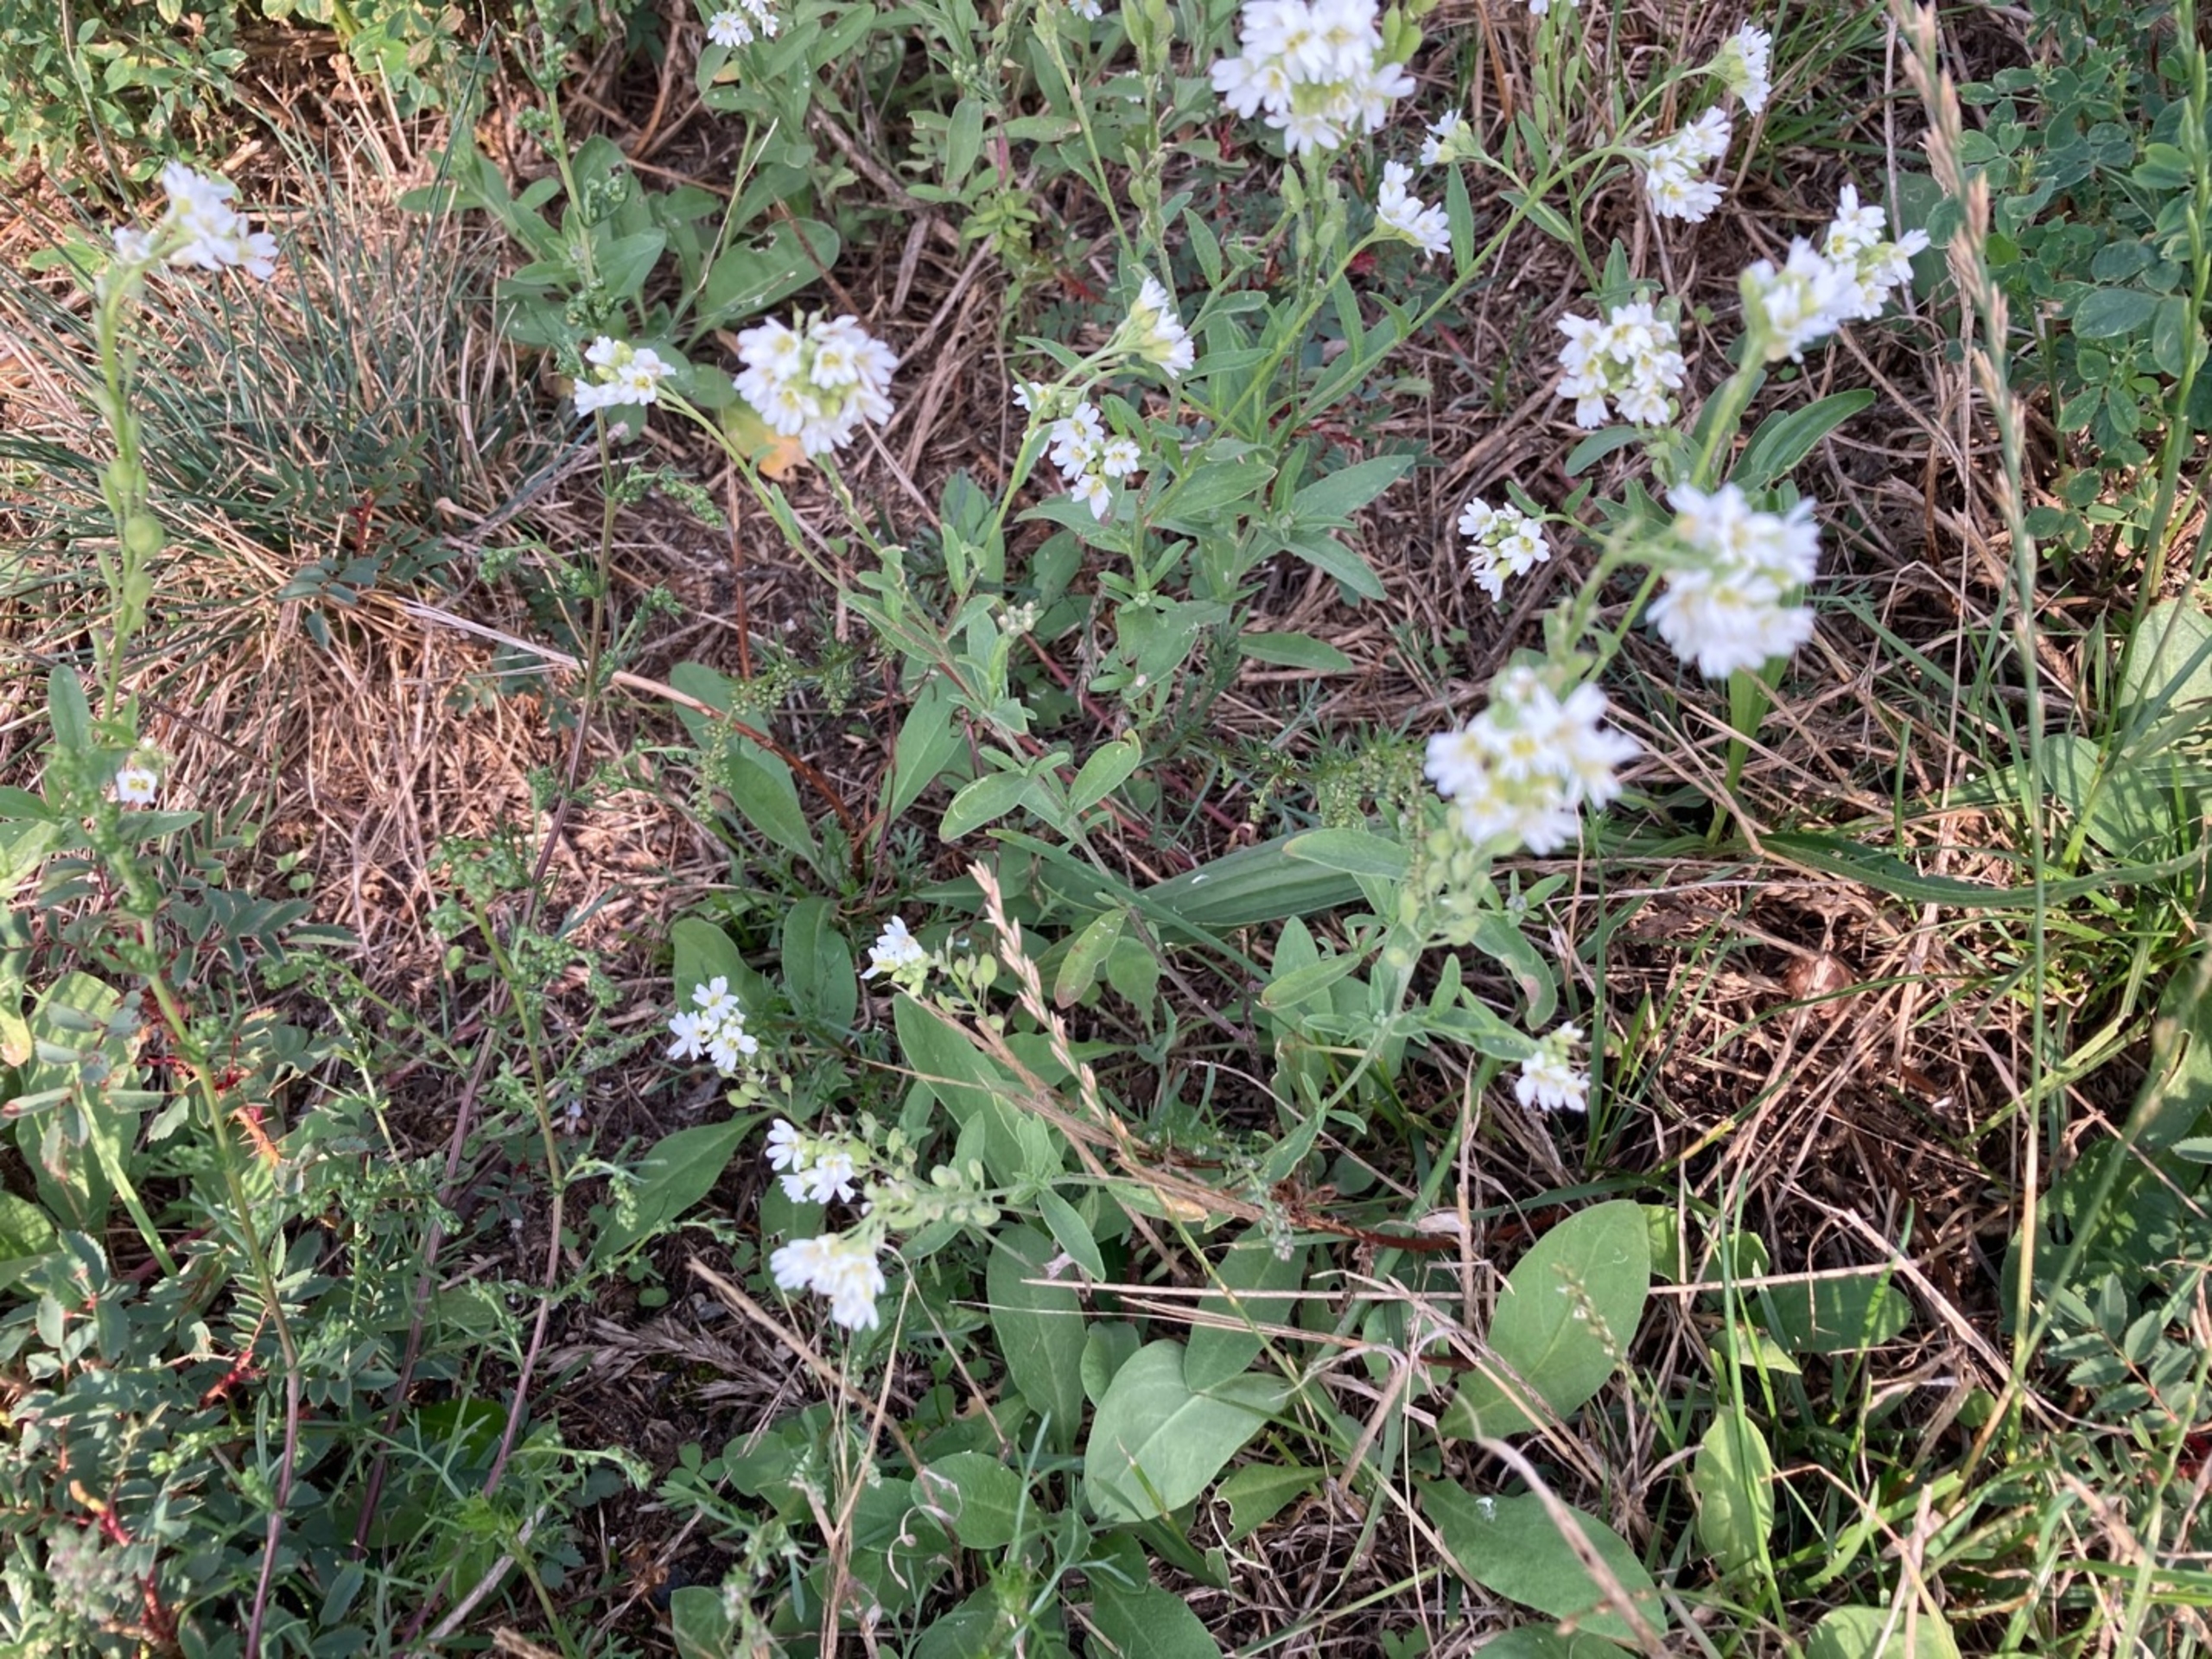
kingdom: Plantae
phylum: Tracheophyta
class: Magnoliopsida
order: Brassicales
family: Brassicaceae
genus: Berteroa
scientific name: Berteroa incana
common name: Kløvplade
